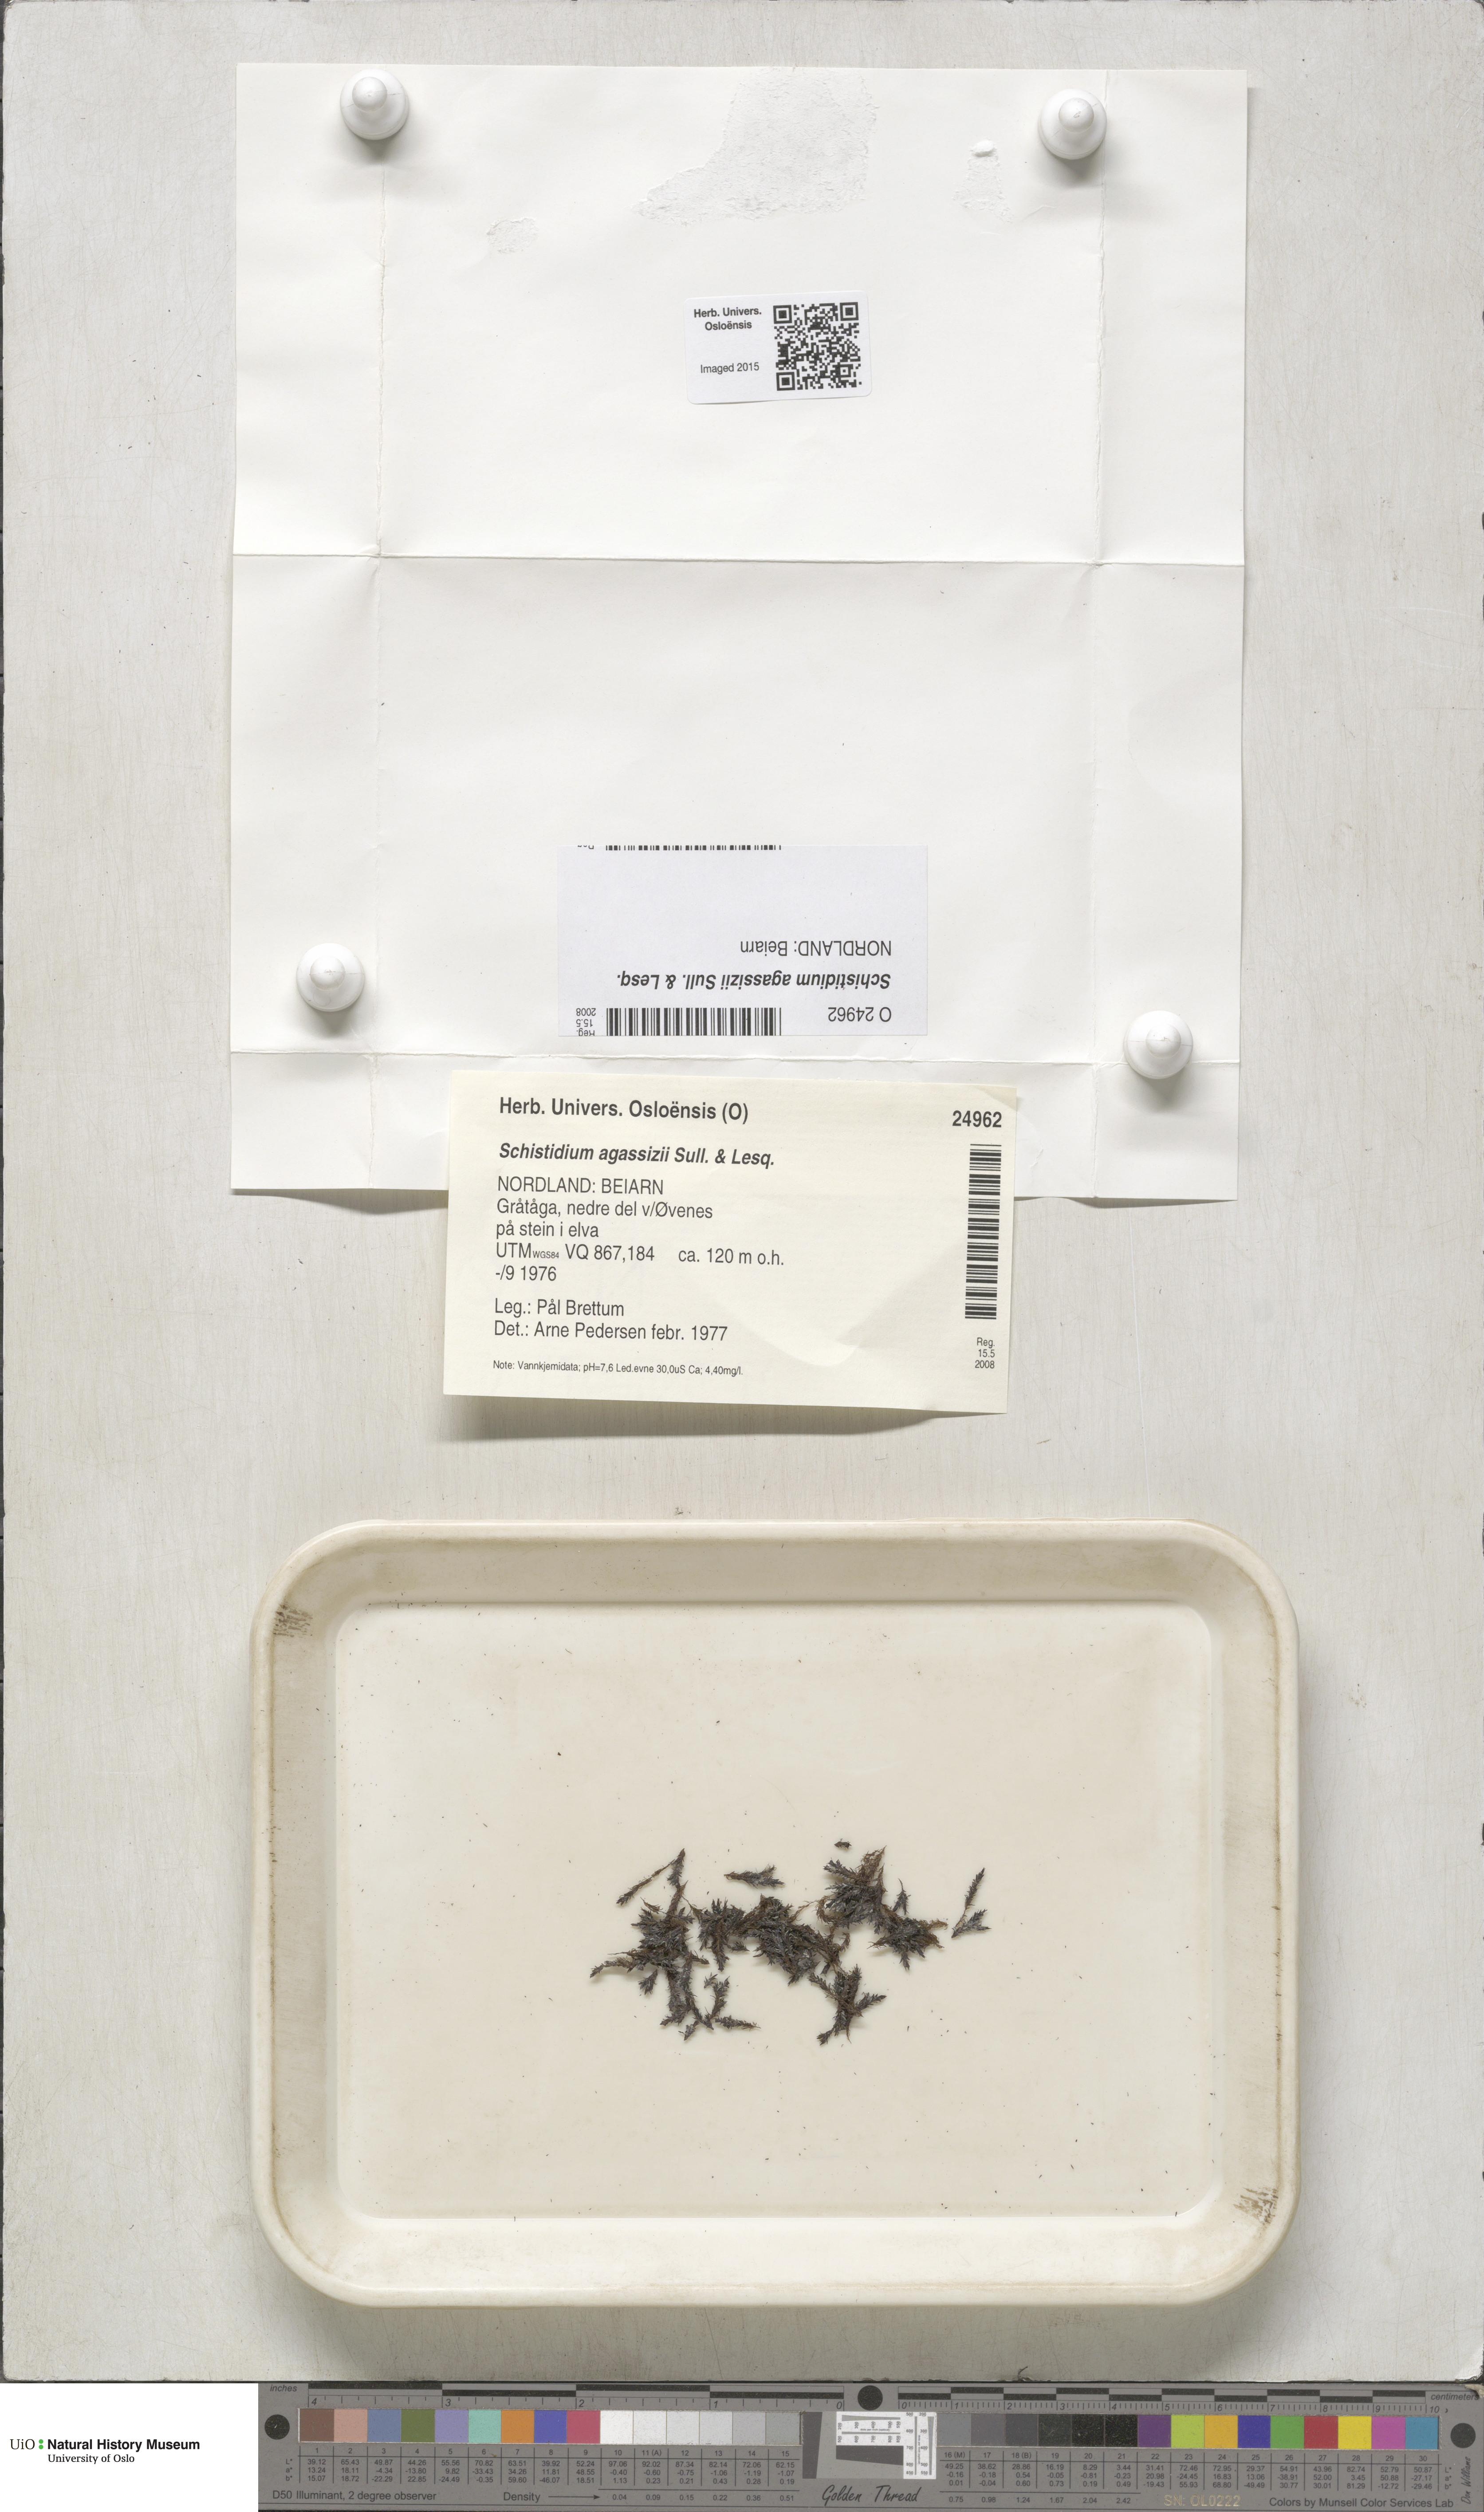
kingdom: Plantae
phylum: Bryophyta
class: Bryopsida
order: Grimmiales
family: Grimmiaceae
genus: Schistidium
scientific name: Schistidium agassizii
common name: Agassiz's bloom moss
